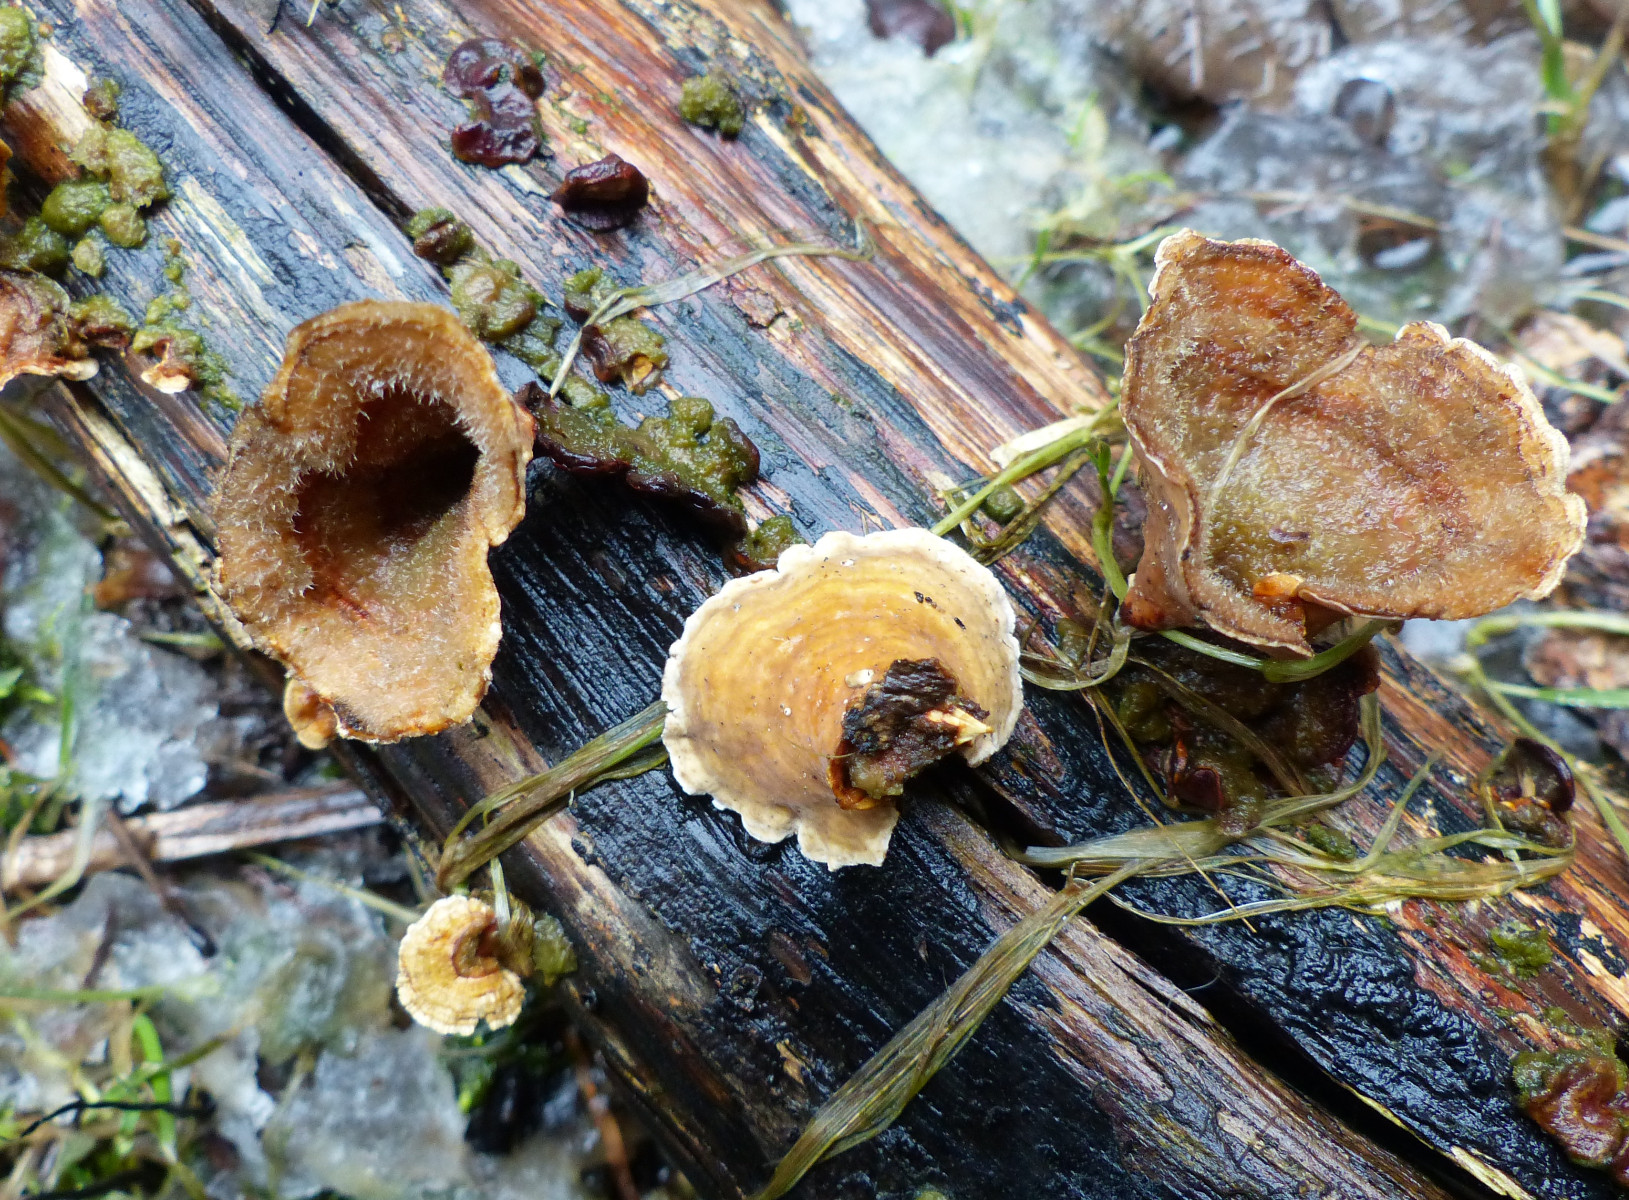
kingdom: Fungi
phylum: Basidiomycota
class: Agaricomycetes
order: Russulales
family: Stereaceae
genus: Stereum
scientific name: Stereum
